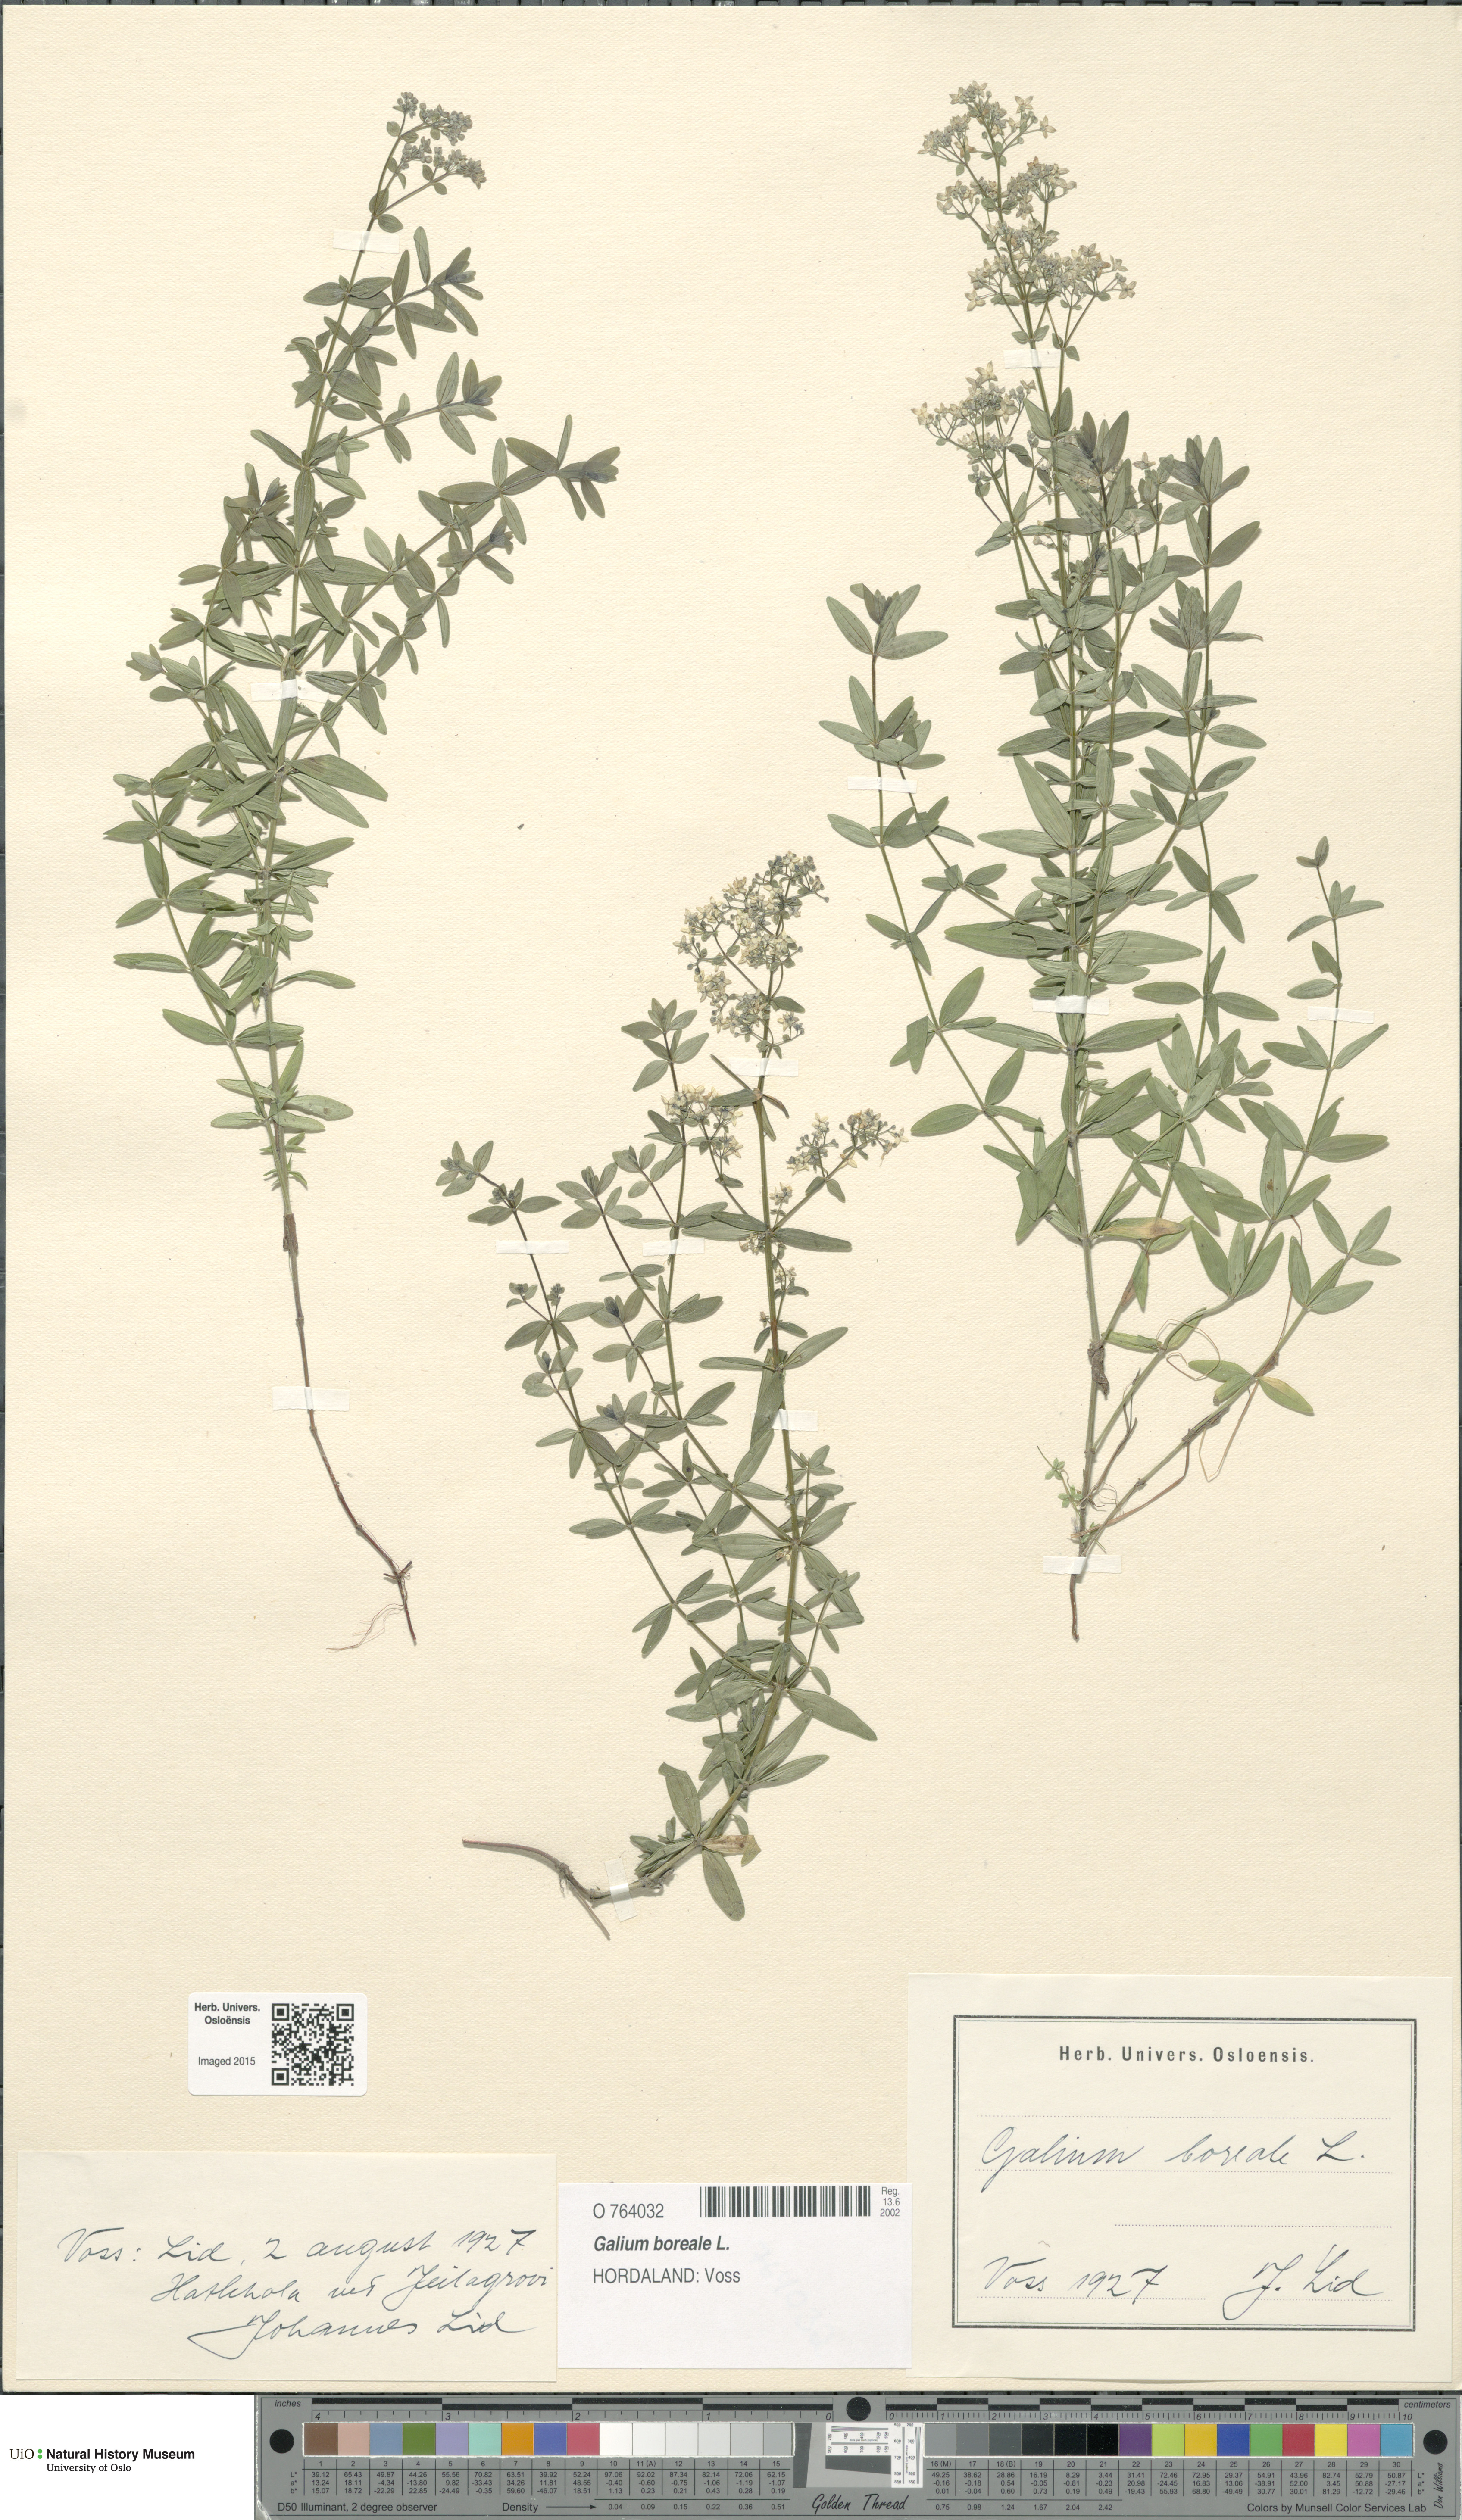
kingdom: Plantae
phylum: Tracheophyta
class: Magnoliopsida
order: Gentianales
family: Rubiaceae
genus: Galium
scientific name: Galium boreale
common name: Northern bedstraw
